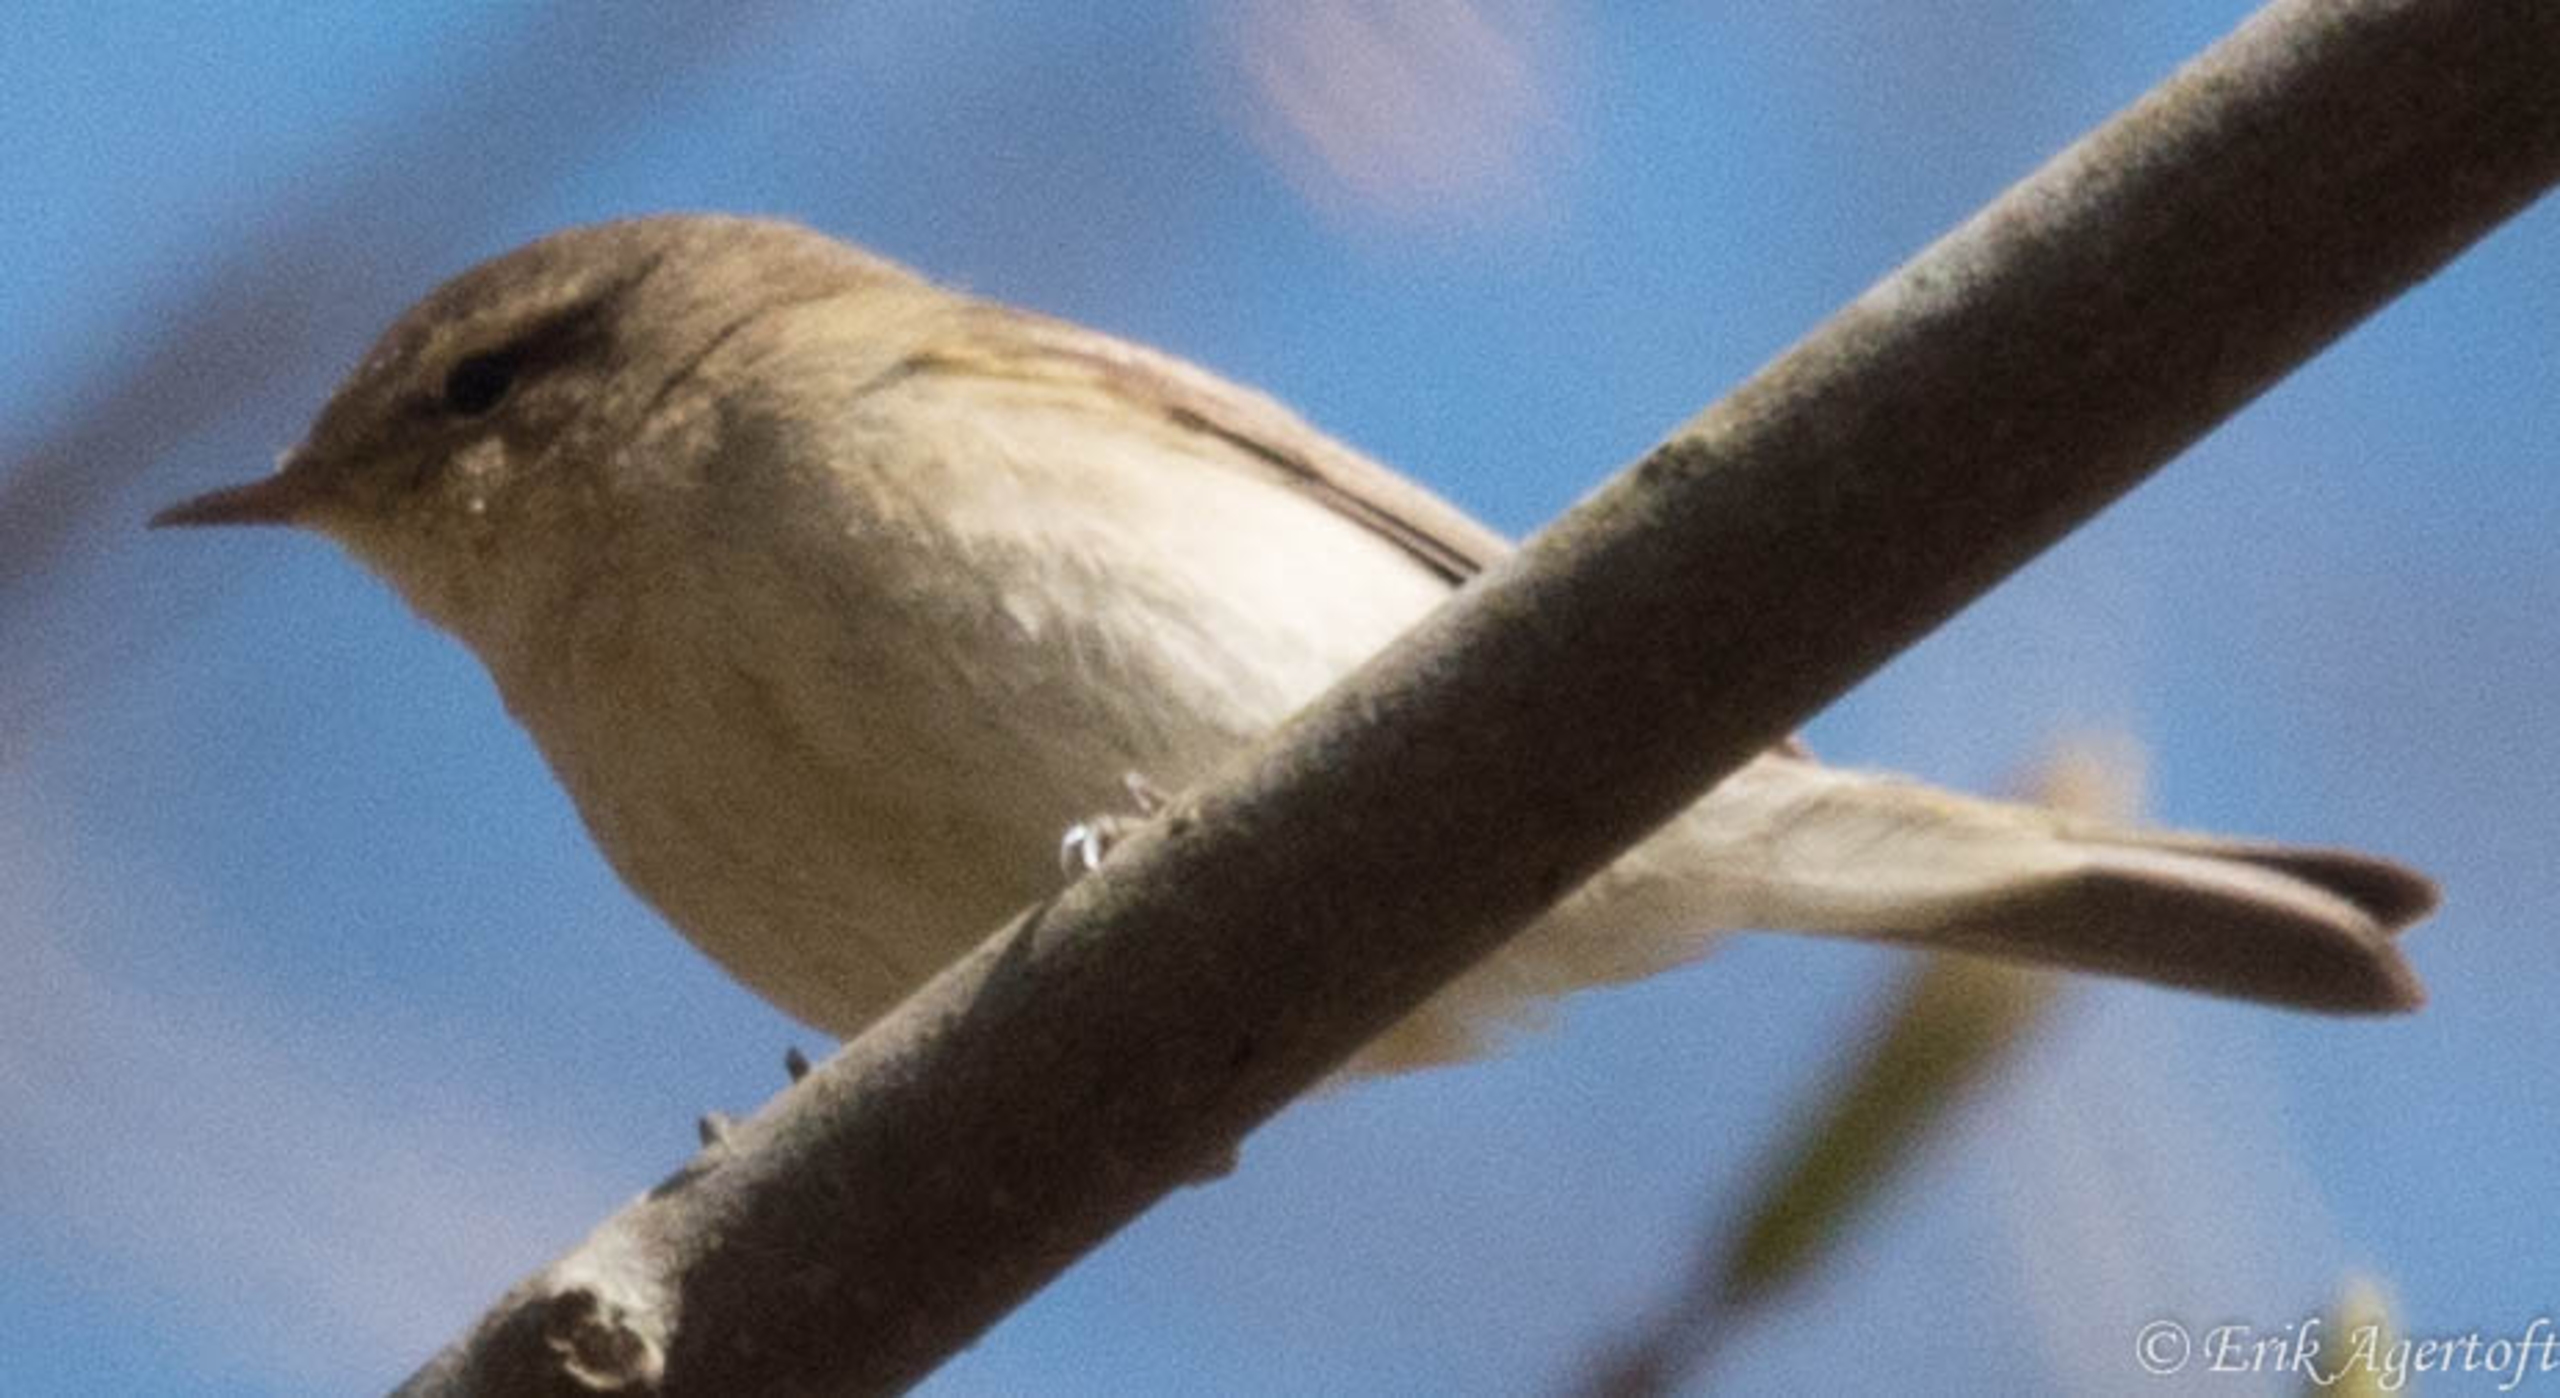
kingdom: Animalia
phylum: Chordata
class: Aves
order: Passeriformes
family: Phylloscopidae
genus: Phylloscopus
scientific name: Phylloscopus collybita
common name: Gransanger
